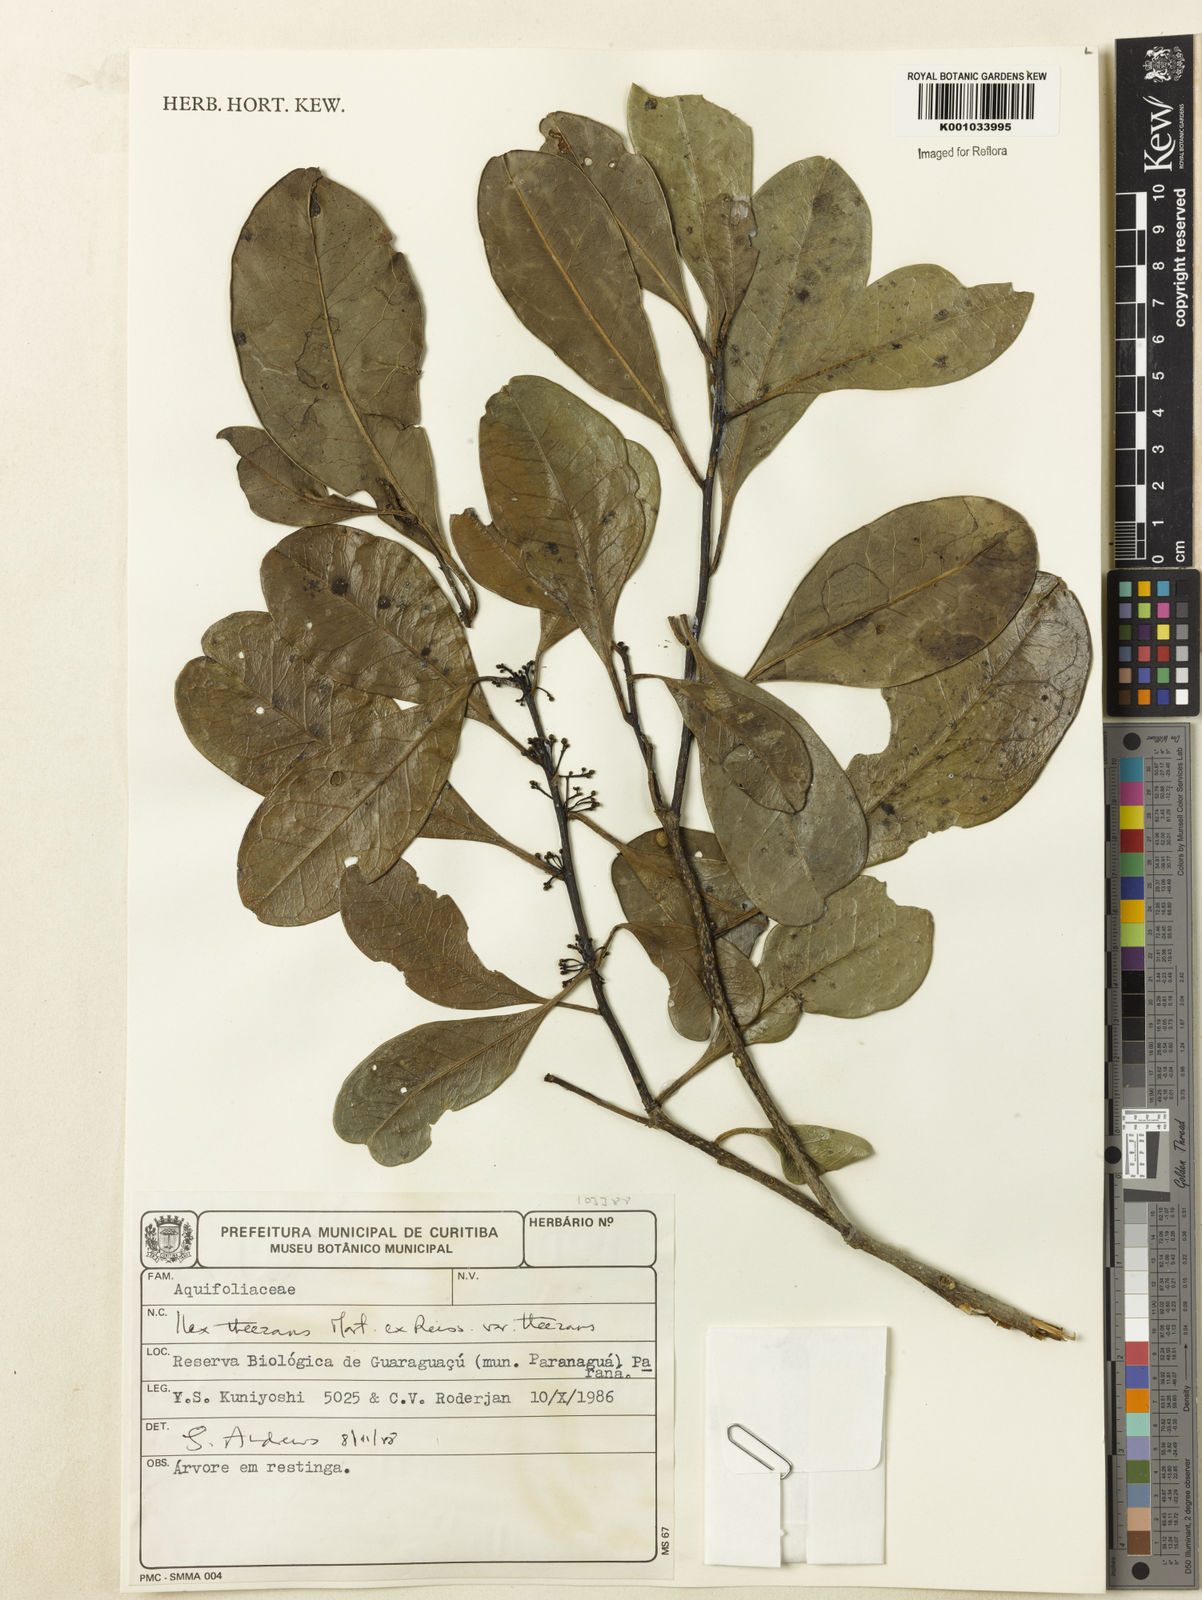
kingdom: Plantae
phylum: Tracheophyta
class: Magnoliopsida
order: Aquifoliales
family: Aquifoliaceae
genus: Ilex
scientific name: Ilex
